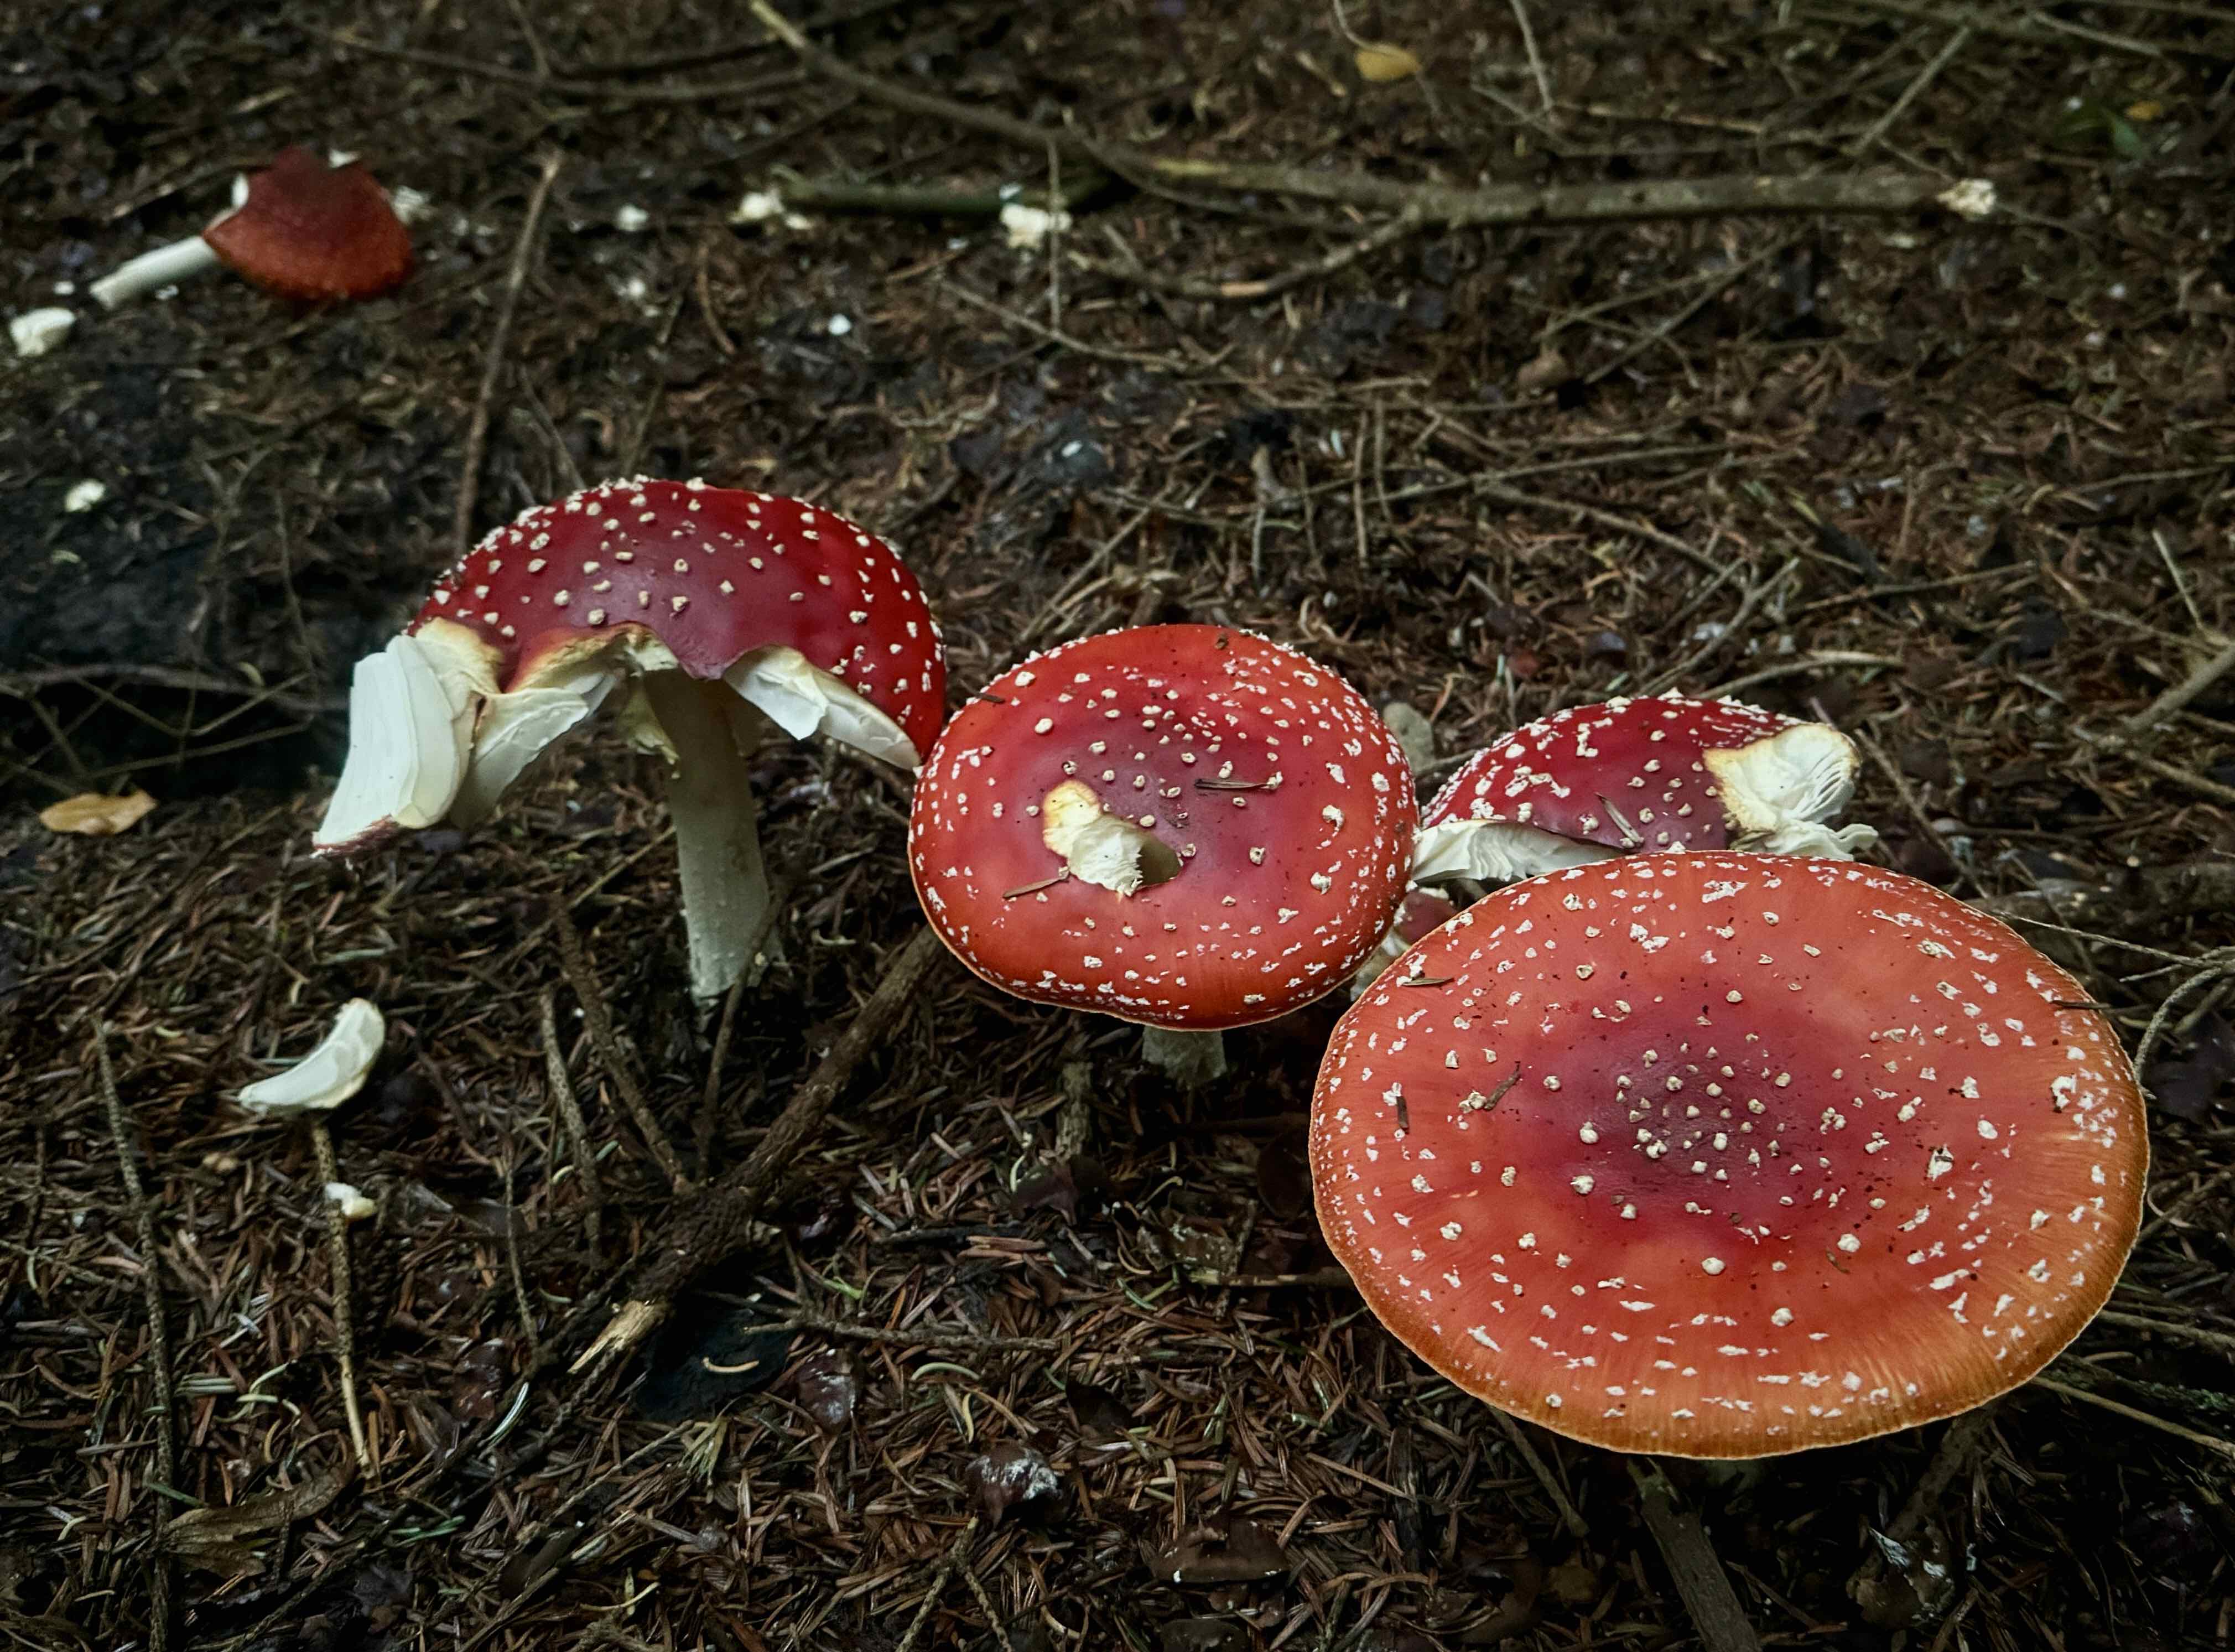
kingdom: Fungi
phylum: Basidiomycota
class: Agaricomycetes
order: Agaricales
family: Amanitaceae
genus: Amanita
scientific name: Amanita muscaria
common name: rød fluesvamp
